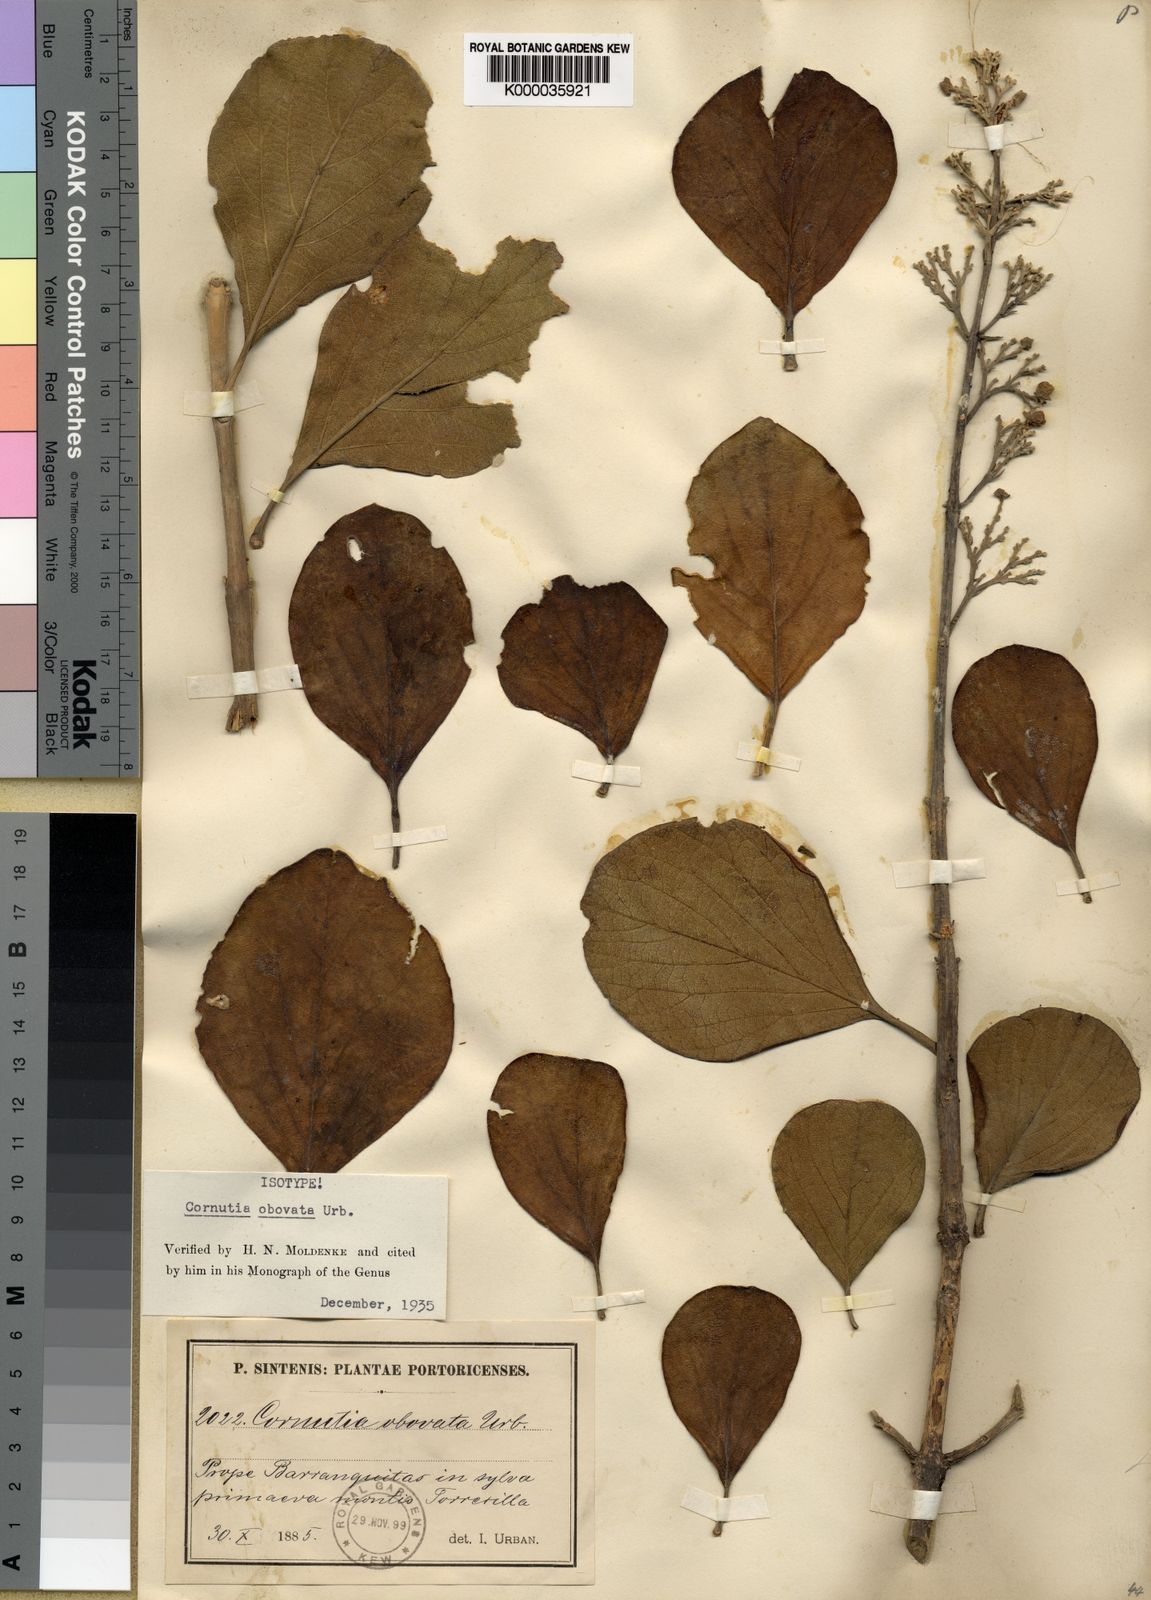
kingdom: Plantae
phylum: Tracheophyta
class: Magnoliopsida
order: Lamiales
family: Lamiaceae
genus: Cornutia
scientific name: Cornutia obovata
